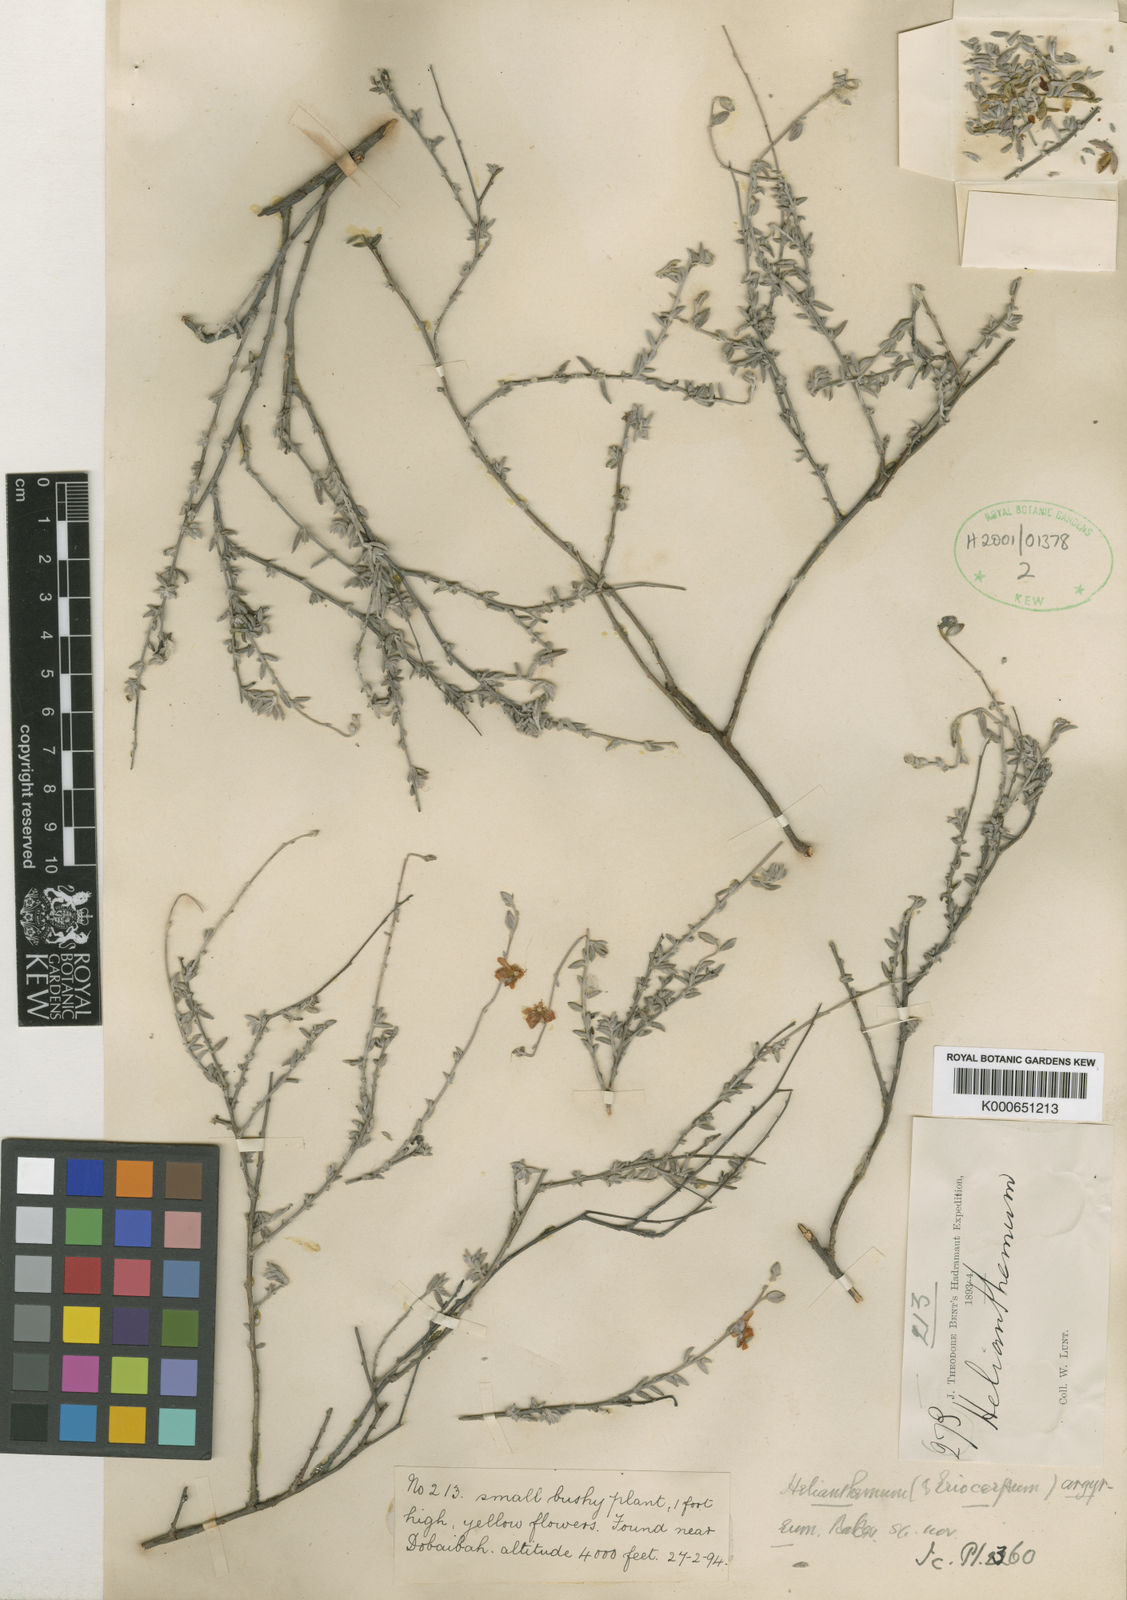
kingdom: Plantae
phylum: Tracheophyta
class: Magnoliopsida
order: Malvales
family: Cistaceae
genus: Helianthemum
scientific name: Helianthemum argyreum
